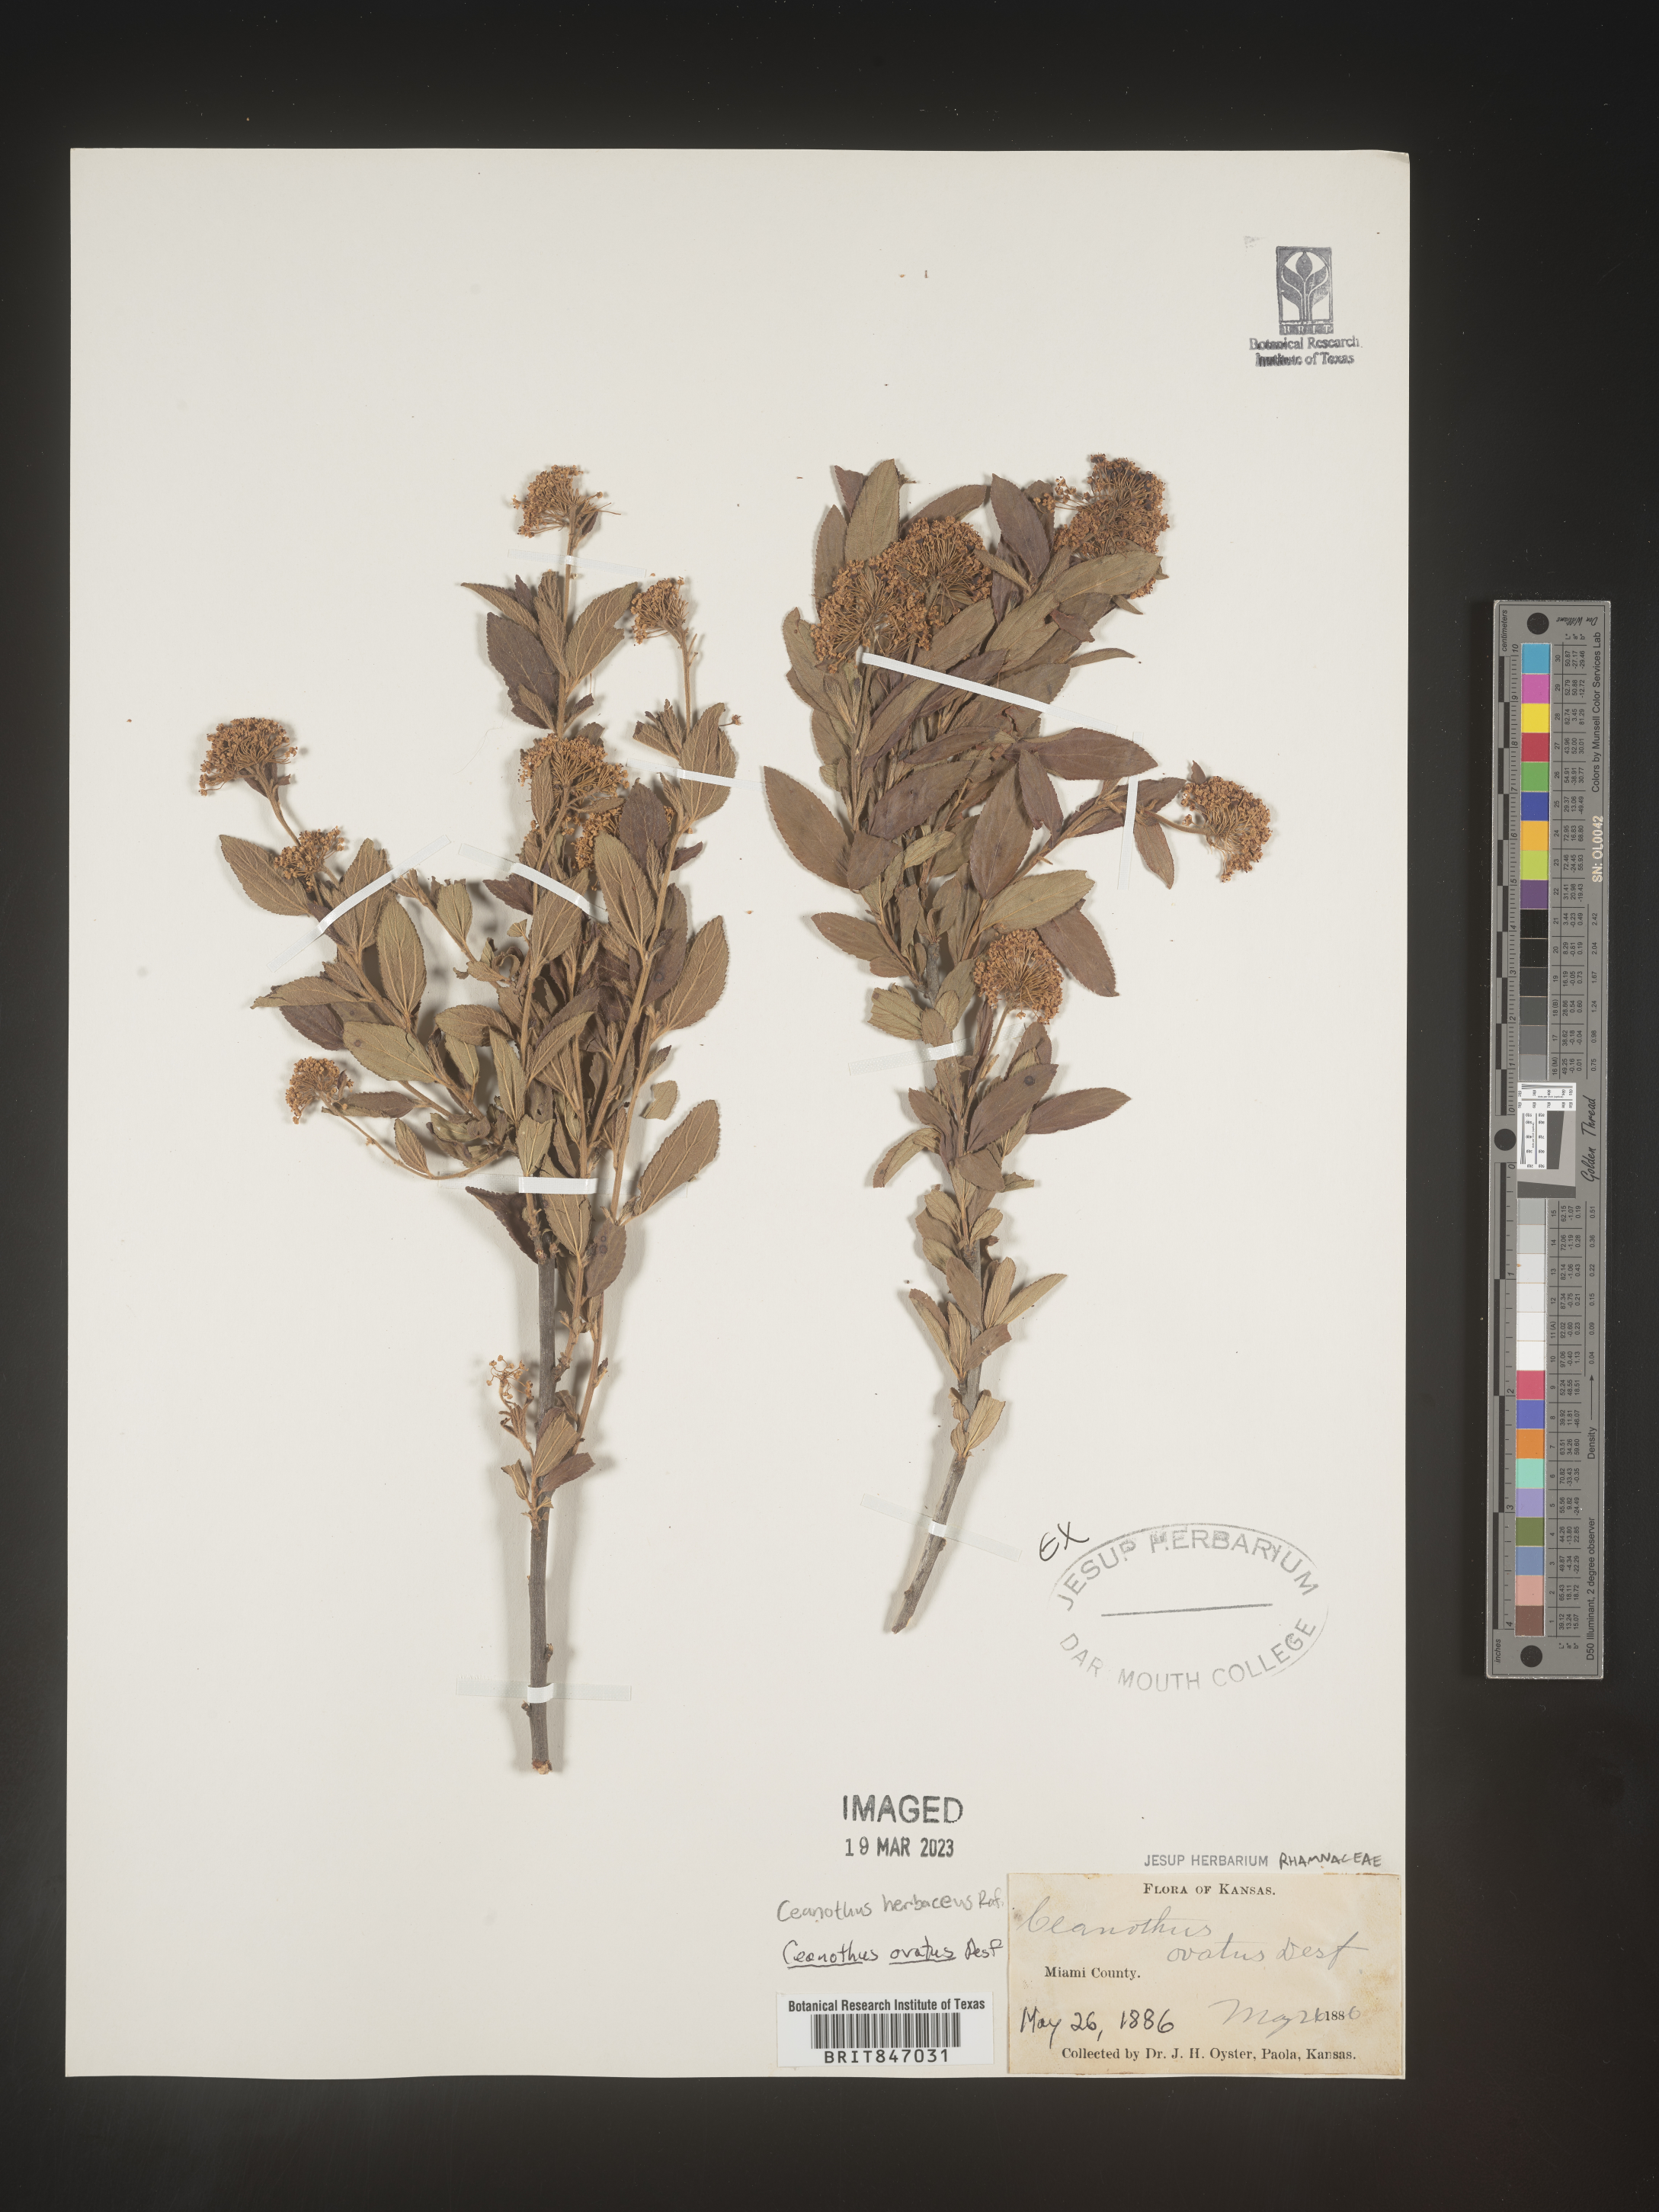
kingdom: Plantae
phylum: Tracheophyta
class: Magnoliopsida
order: Rosales
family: Rhamnaceae
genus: Ceanothus
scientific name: Ceanothus herbaceus
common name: Inland ceanothus
